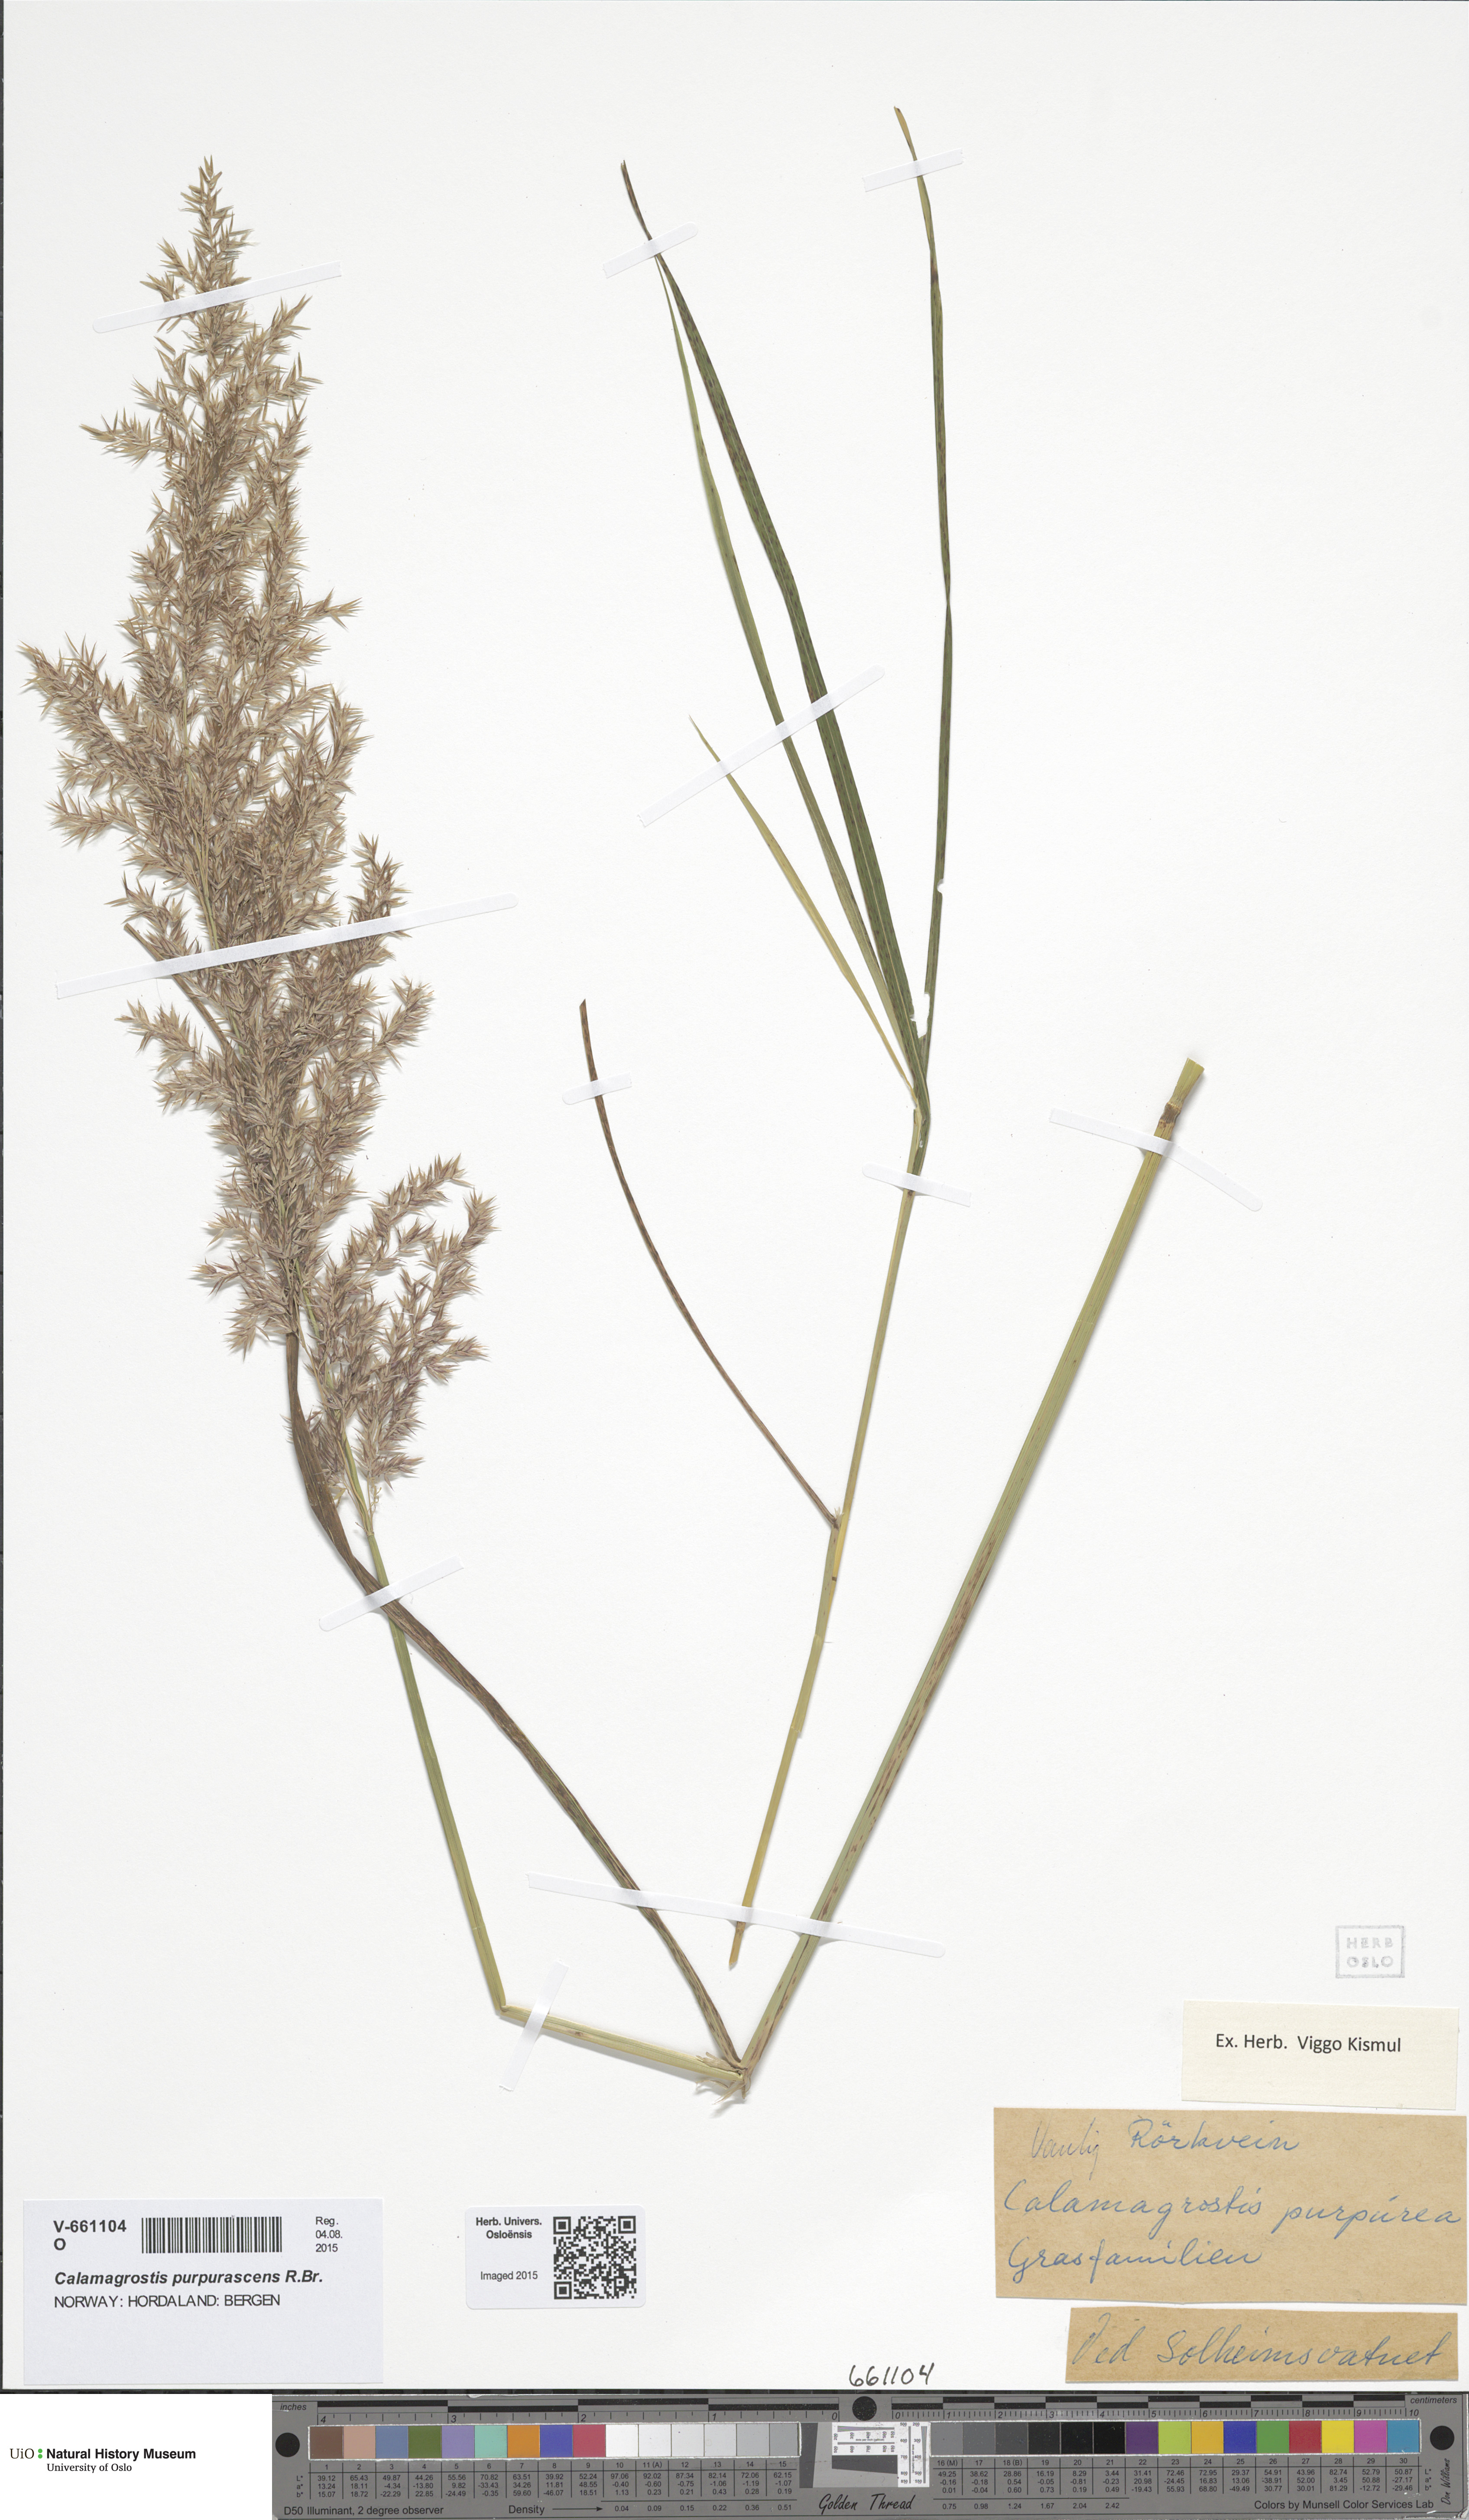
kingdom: Plantae
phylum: Tracheophyta
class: Liliopsida
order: Poales
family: Poaceae
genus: Calamagrostis
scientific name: Calamagrostis purpurea
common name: Scandinavian small-reed
